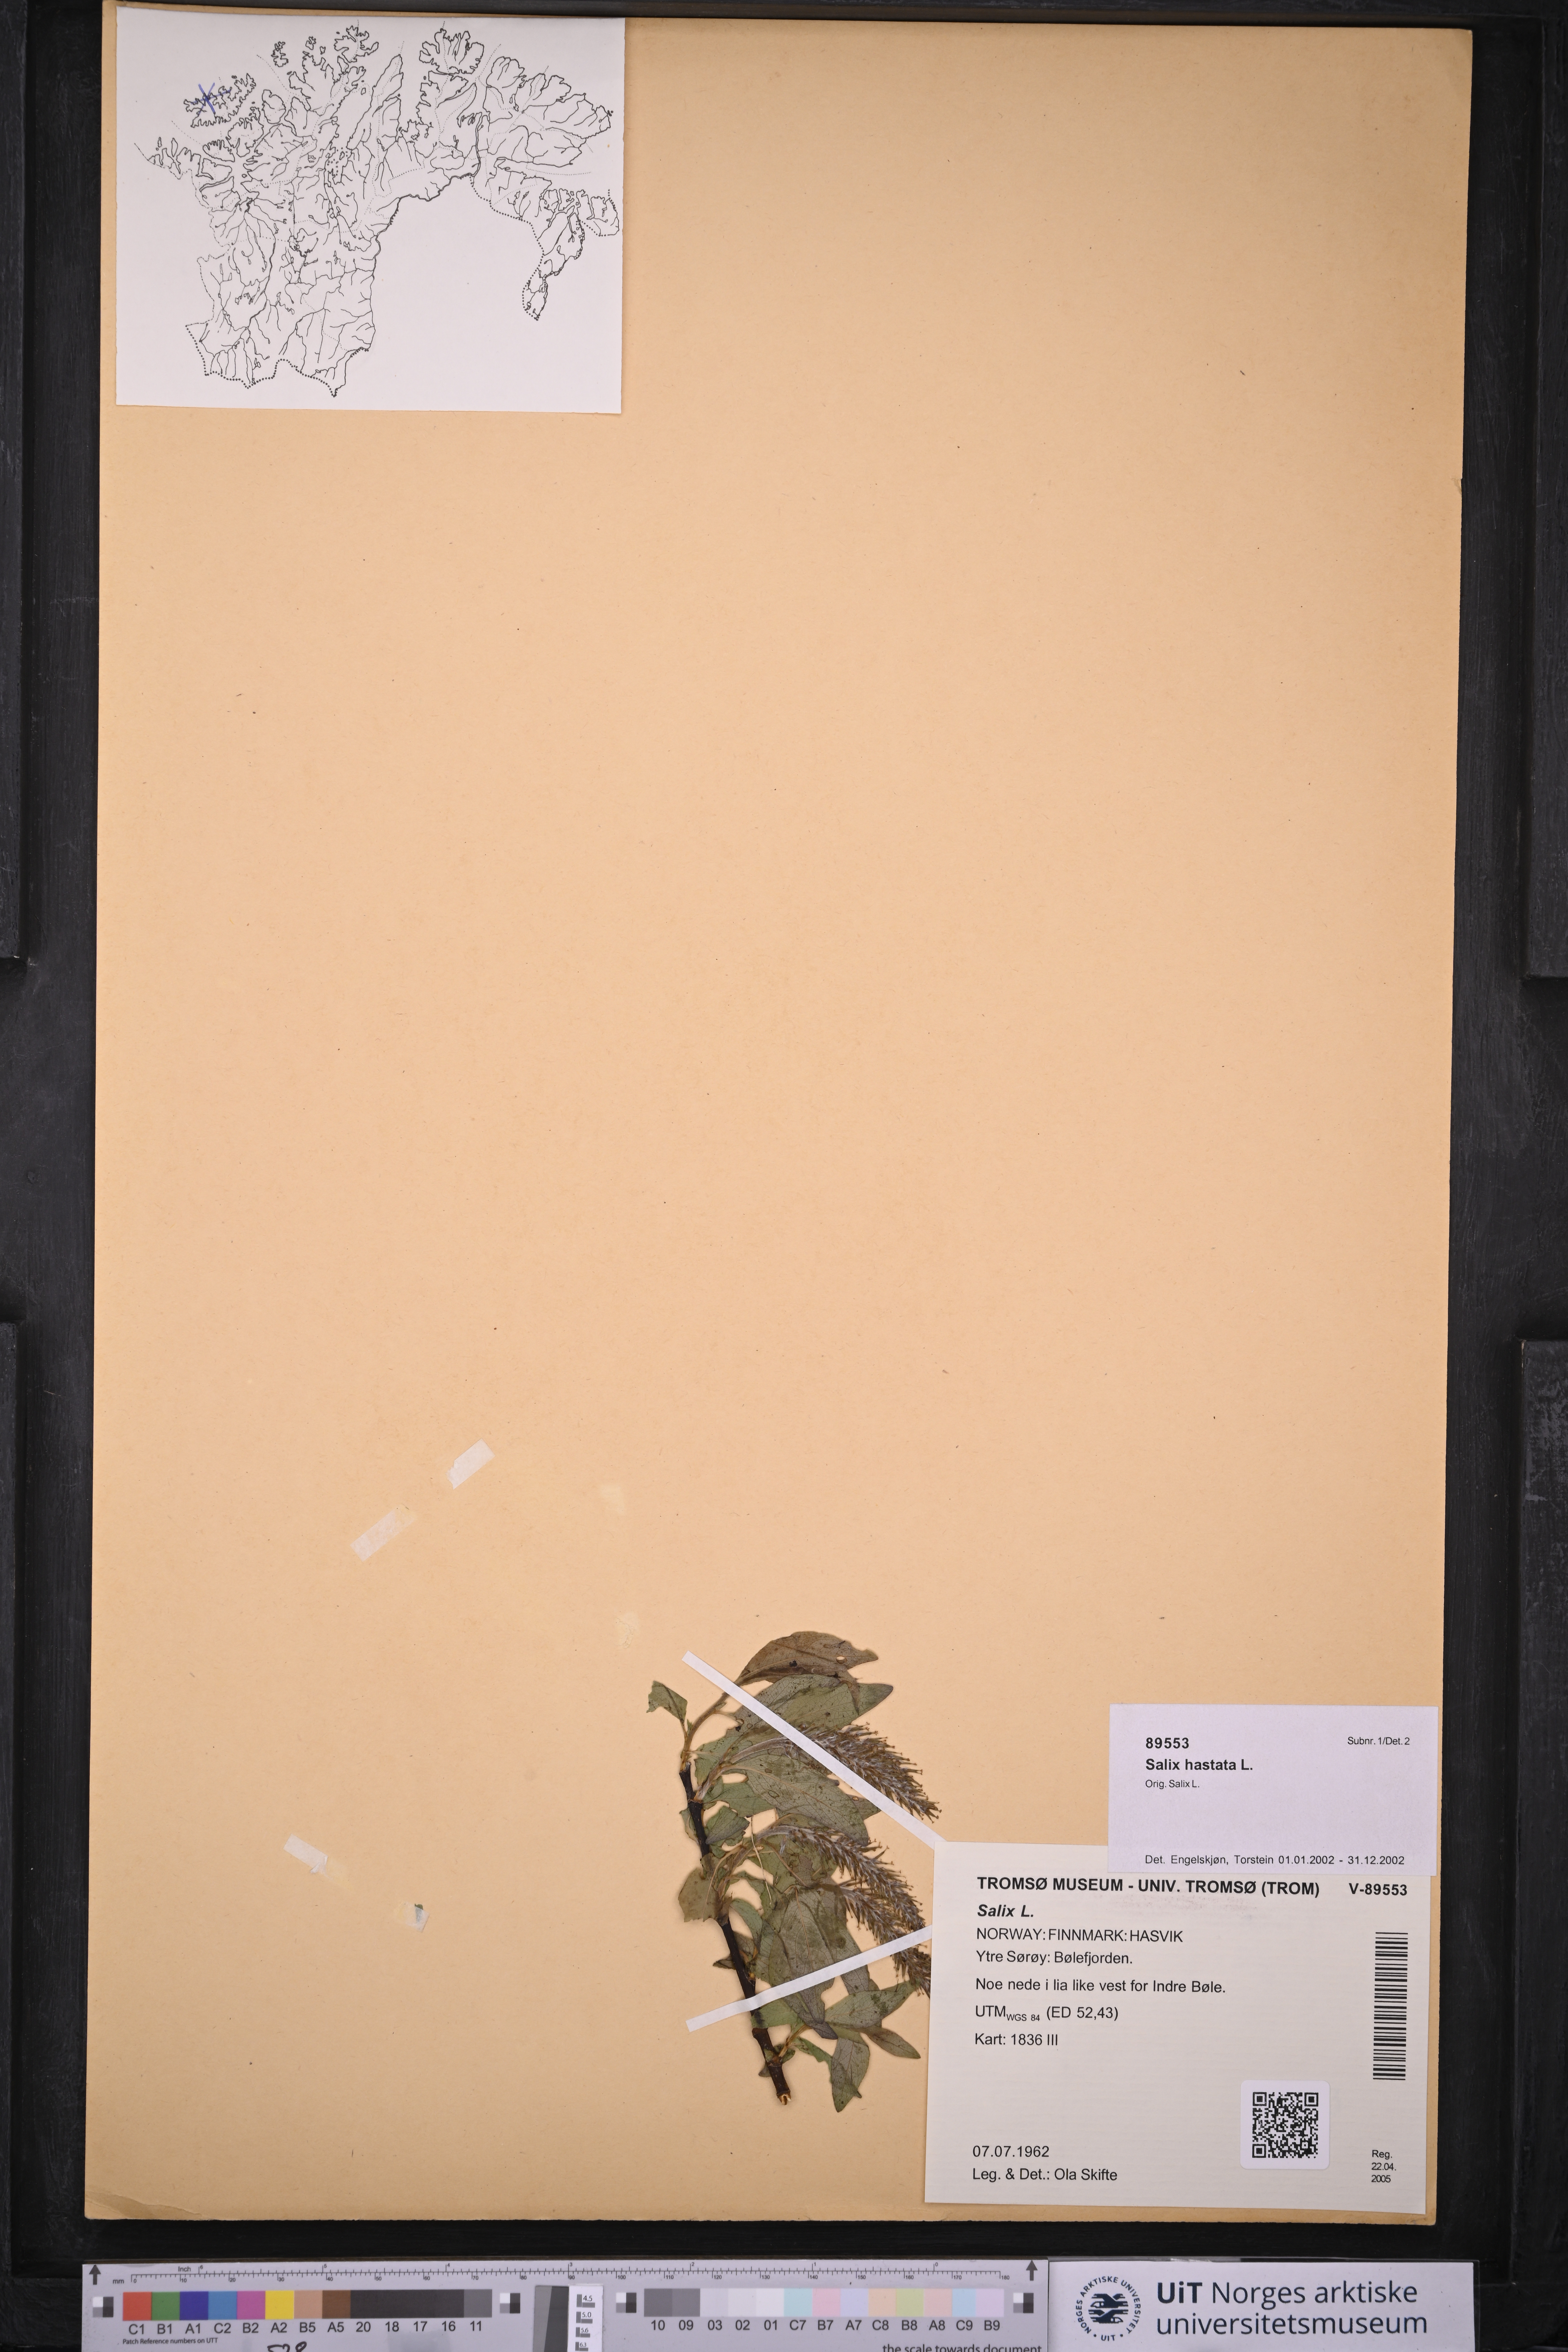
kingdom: Plantae
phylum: Tracheophyta
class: Magnoliopsida
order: Malpighiales
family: Salicaceae
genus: Salix
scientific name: Salix hastata
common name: Halberd willow
